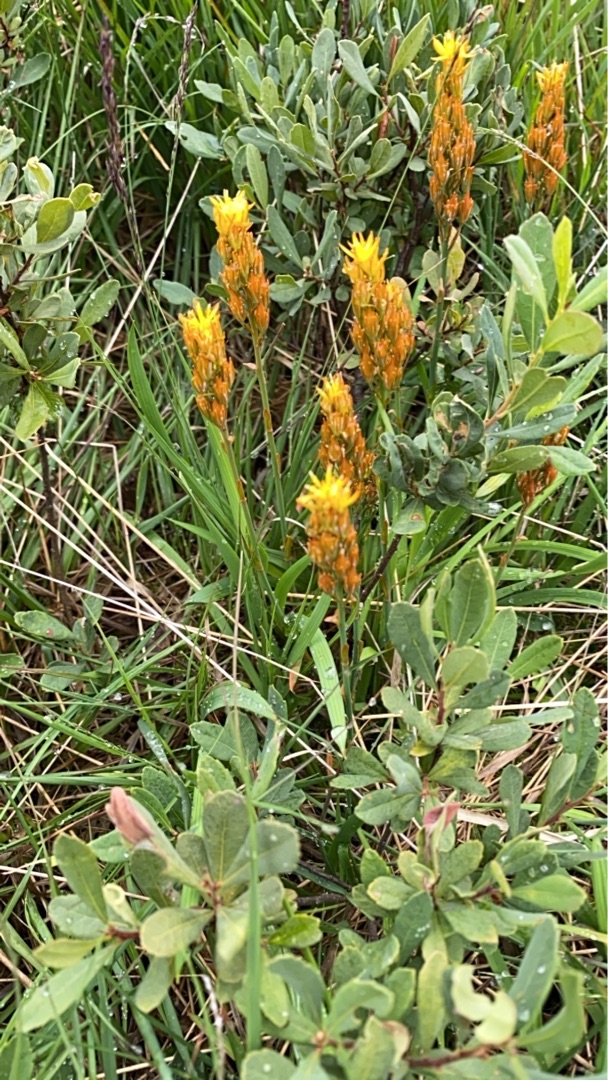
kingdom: Plantae
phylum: Tracheophyta
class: Liliopsida
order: Dioscoreales
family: Nartheciaceae
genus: Narthecium
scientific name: Narthecium ossifragum
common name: Benbræk
